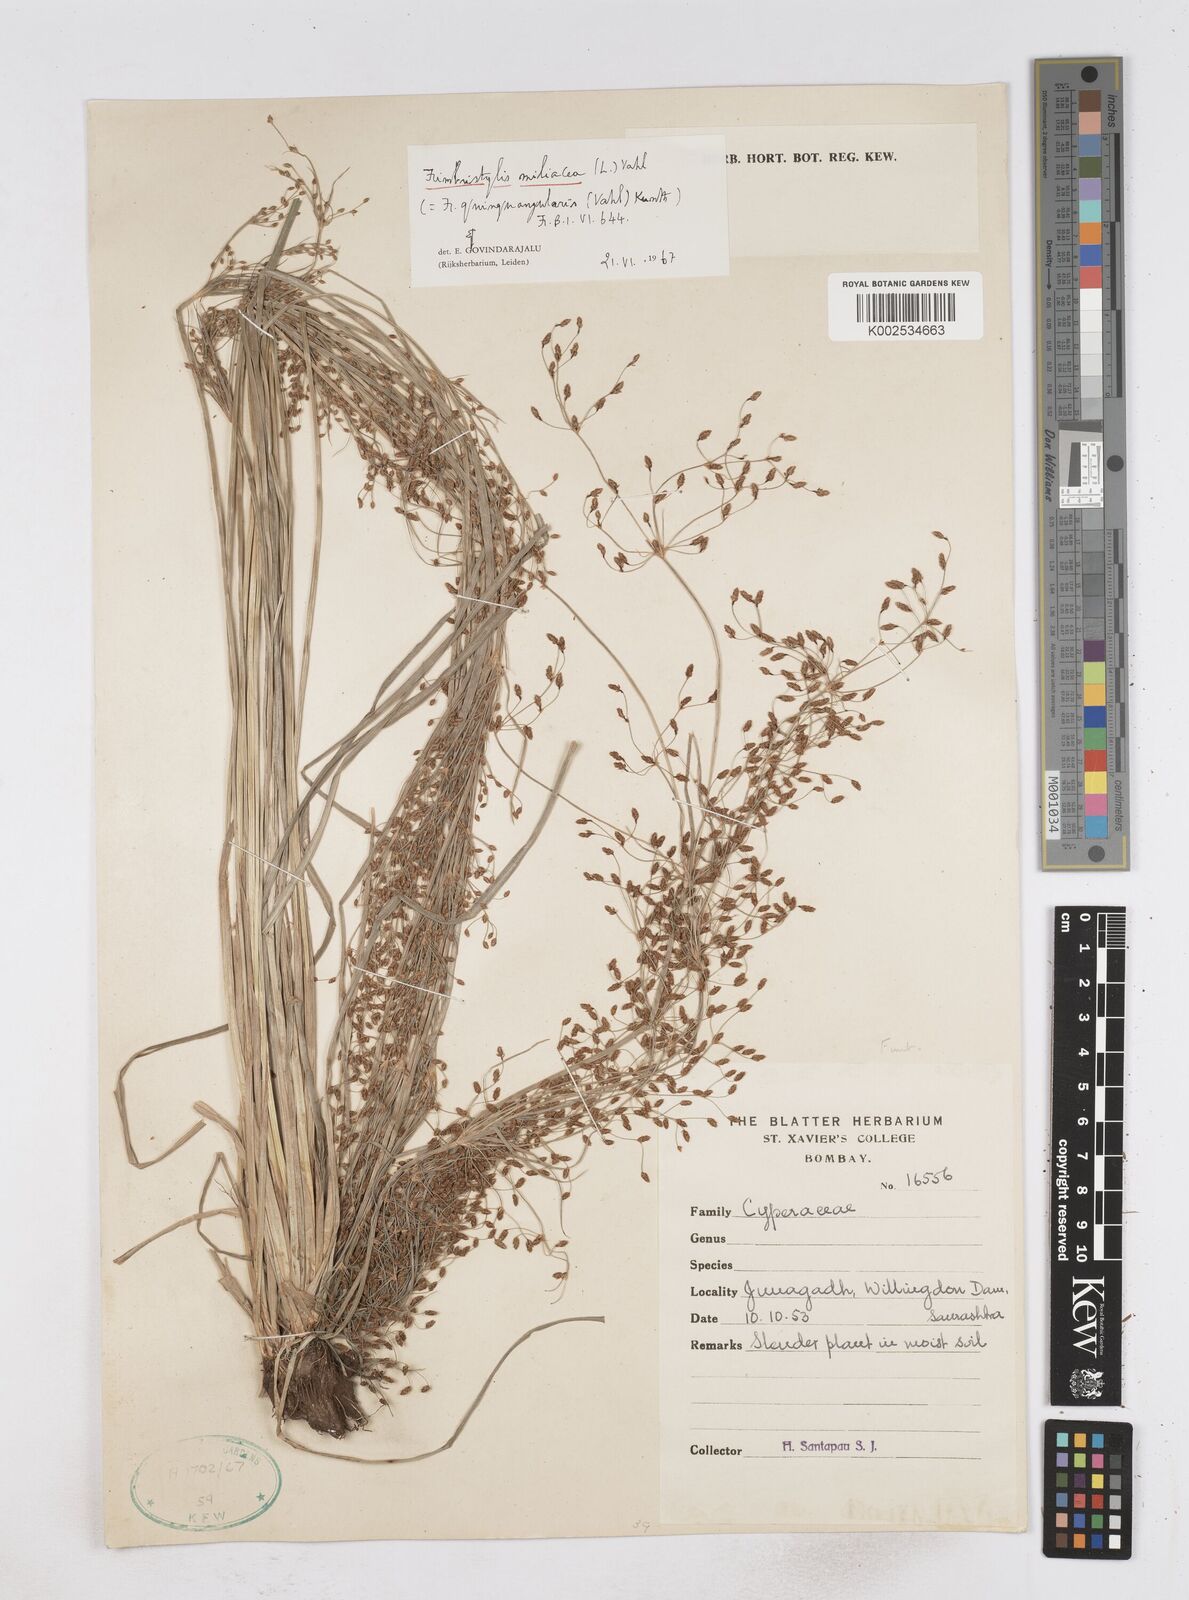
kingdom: Plantae
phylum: Tracheophyta
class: Liliopsida
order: Poales
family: Cyperaceae
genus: Fimbristylis
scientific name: Fimbristylis littoralis
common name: Fimbry
